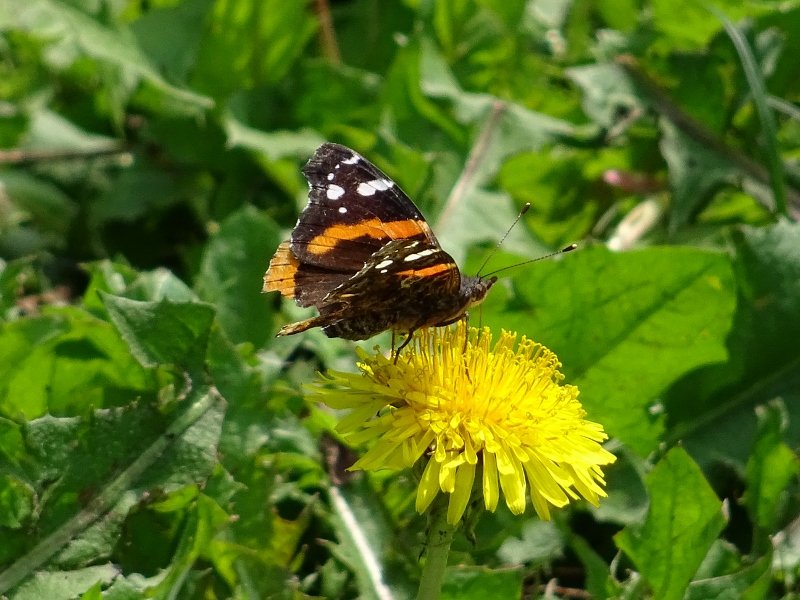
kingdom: Animalia
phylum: Arthropoda
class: Insecta
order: Lepidoptera
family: Nymphalidae
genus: Vanessa
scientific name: Vanessa atalanta
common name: Red Admiral
